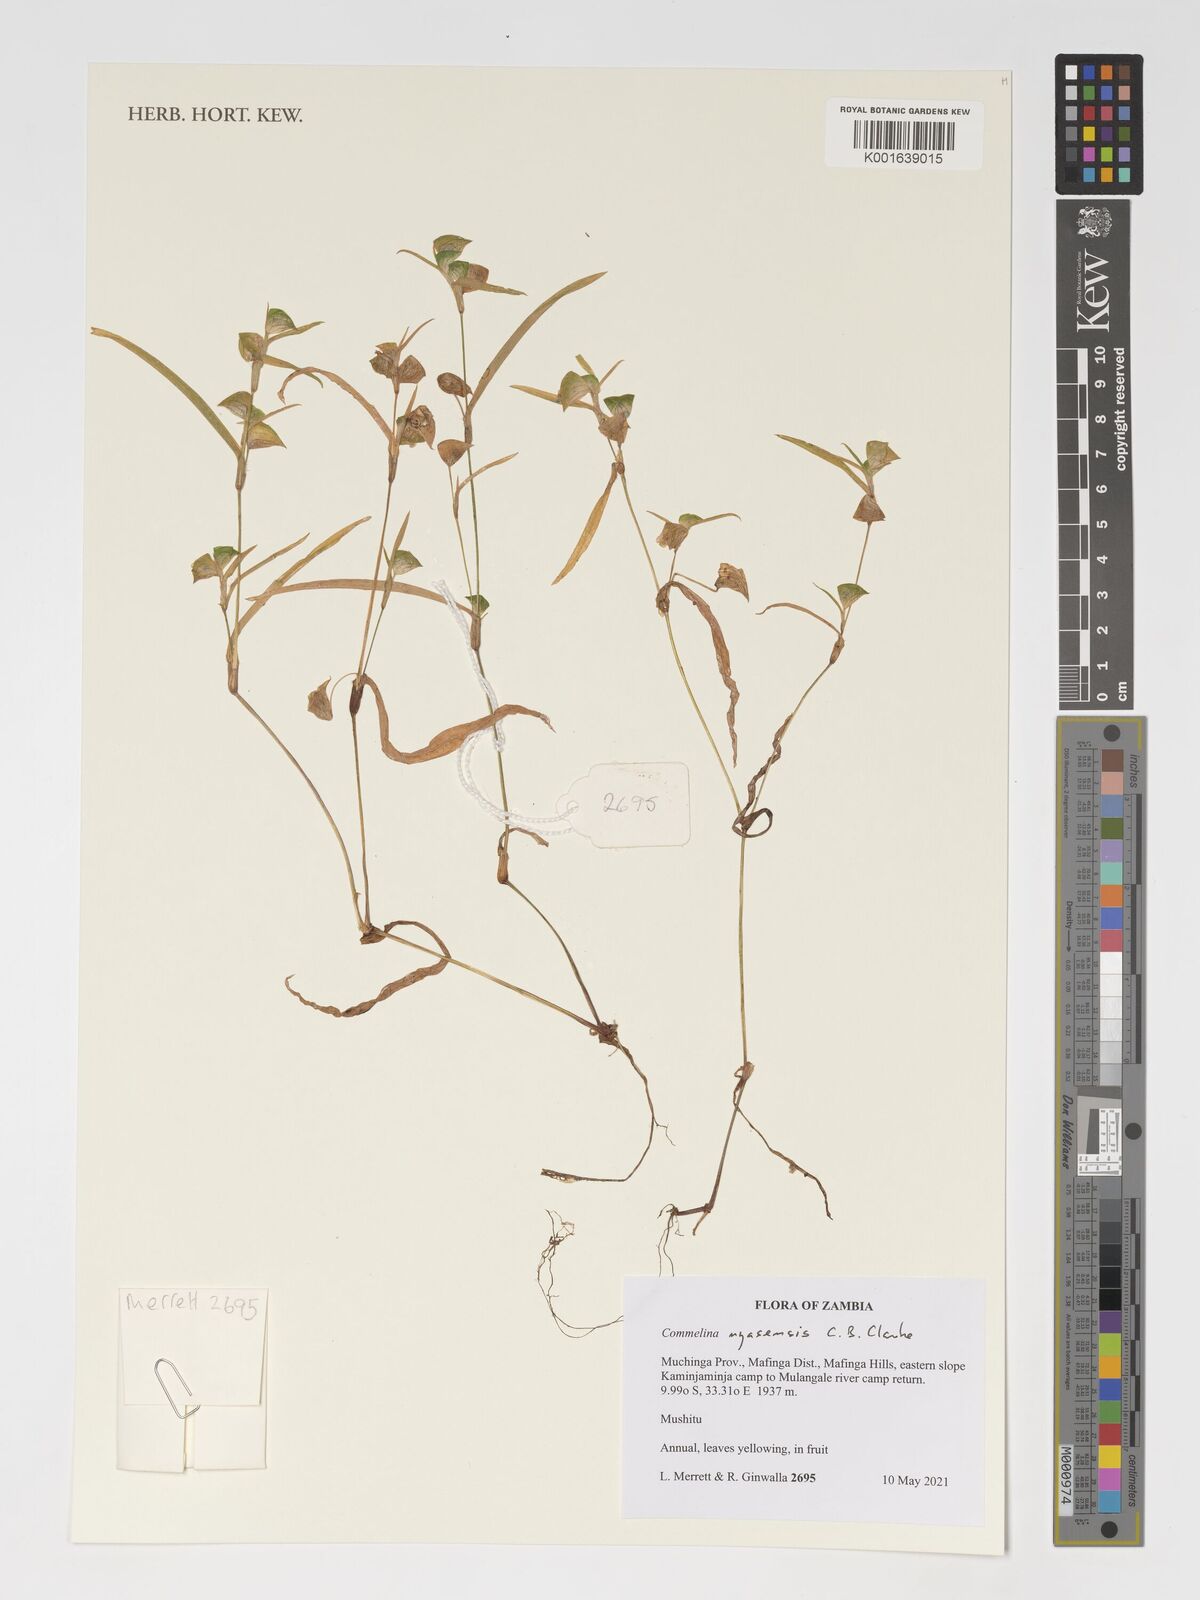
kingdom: Plantae
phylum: Tracheophyta
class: Liliopsida
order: Commelinales
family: Commelinaceae
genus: Commelina
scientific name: Commelina nyasensis
